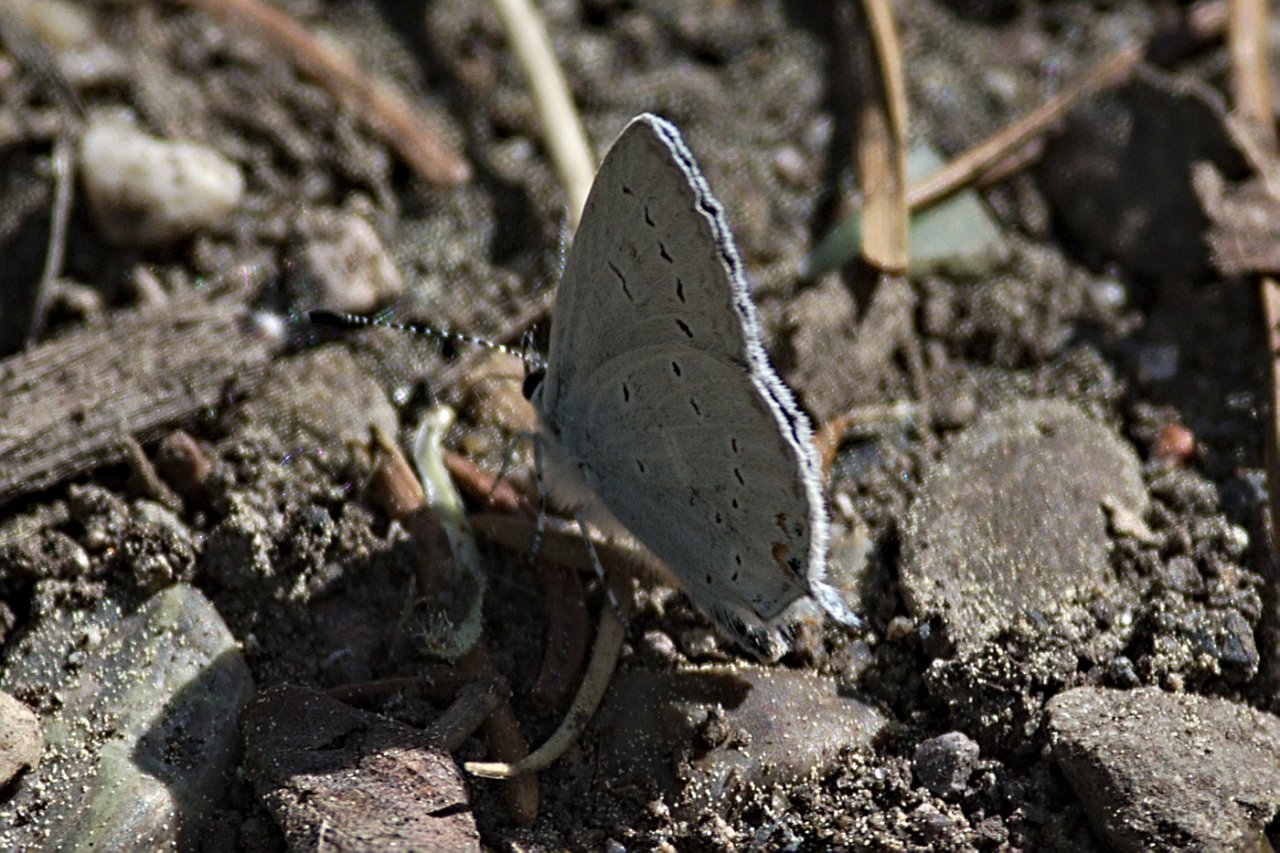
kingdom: Animalia
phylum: Arthropoda
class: Insecta
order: Lepidoptera
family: Lycaenidae
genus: Elkalyce
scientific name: Elkalyce amyntula
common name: Western Tailed-Blue
